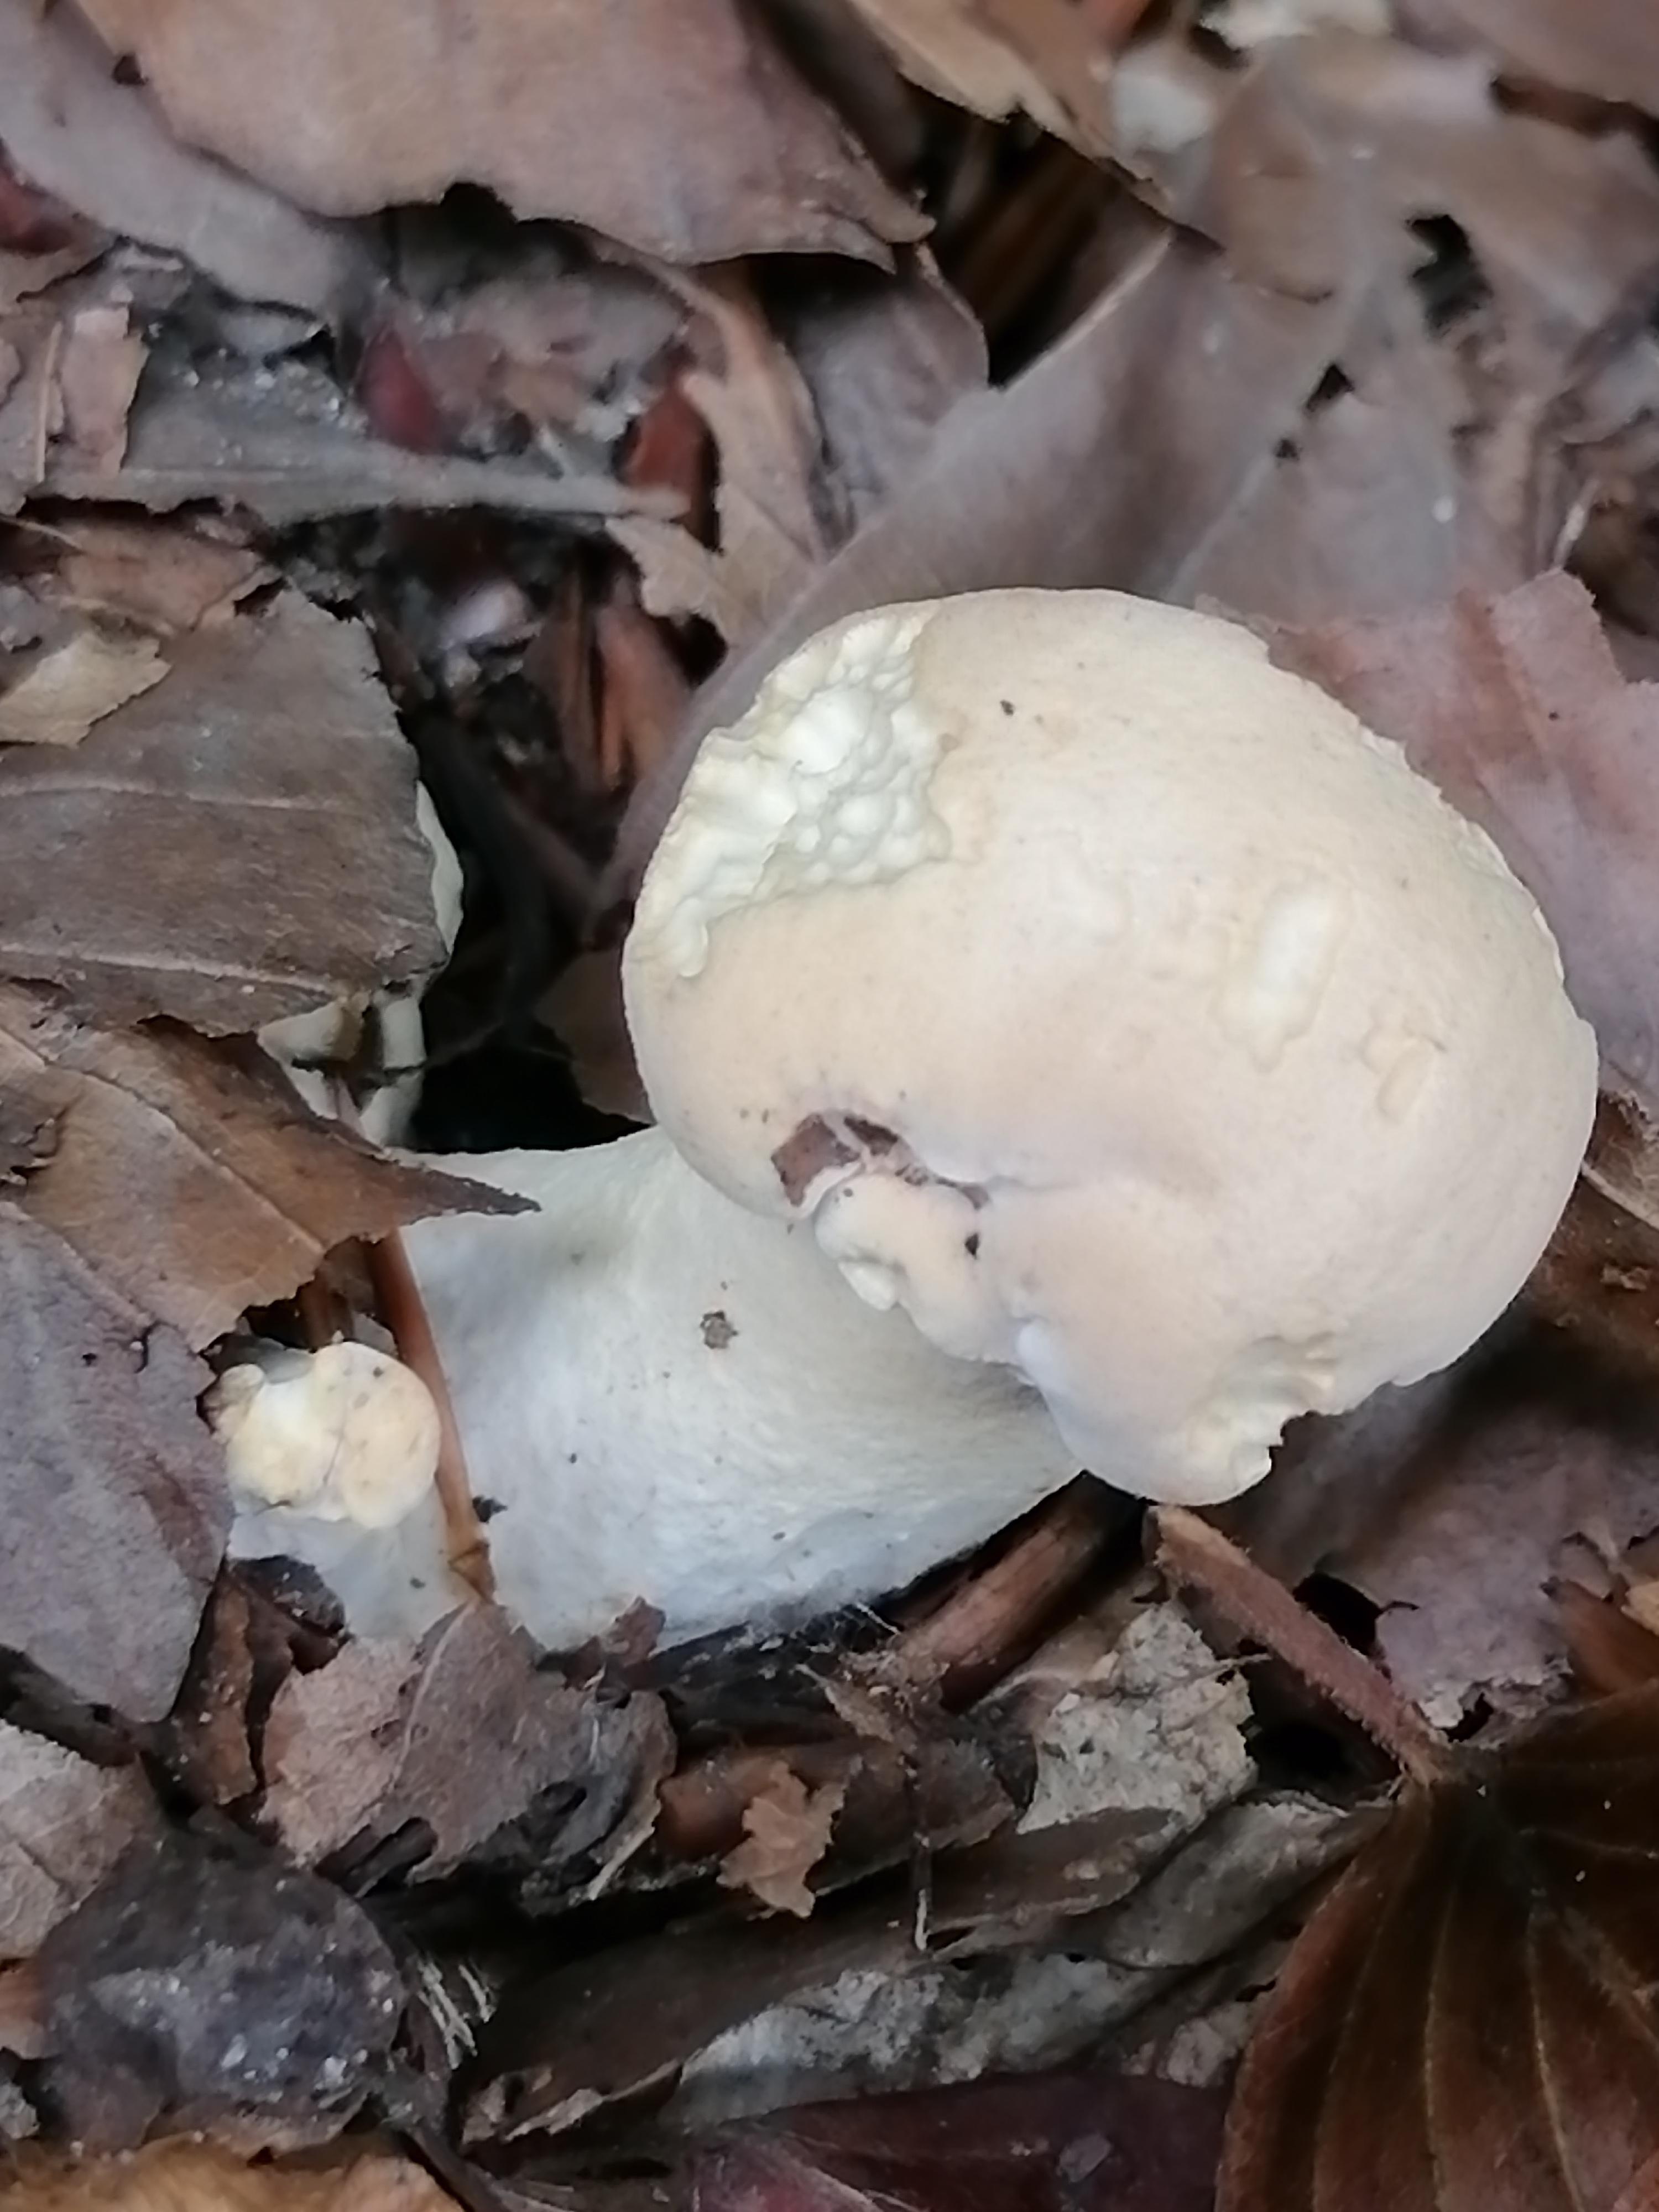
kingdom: Fungi
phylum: Basidiomycota
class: Agaricomycetes
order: Cantharellales
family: Hydnaceae
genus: Hydnum
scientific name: Hydnum repandum
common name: almindelig pigsvamp
